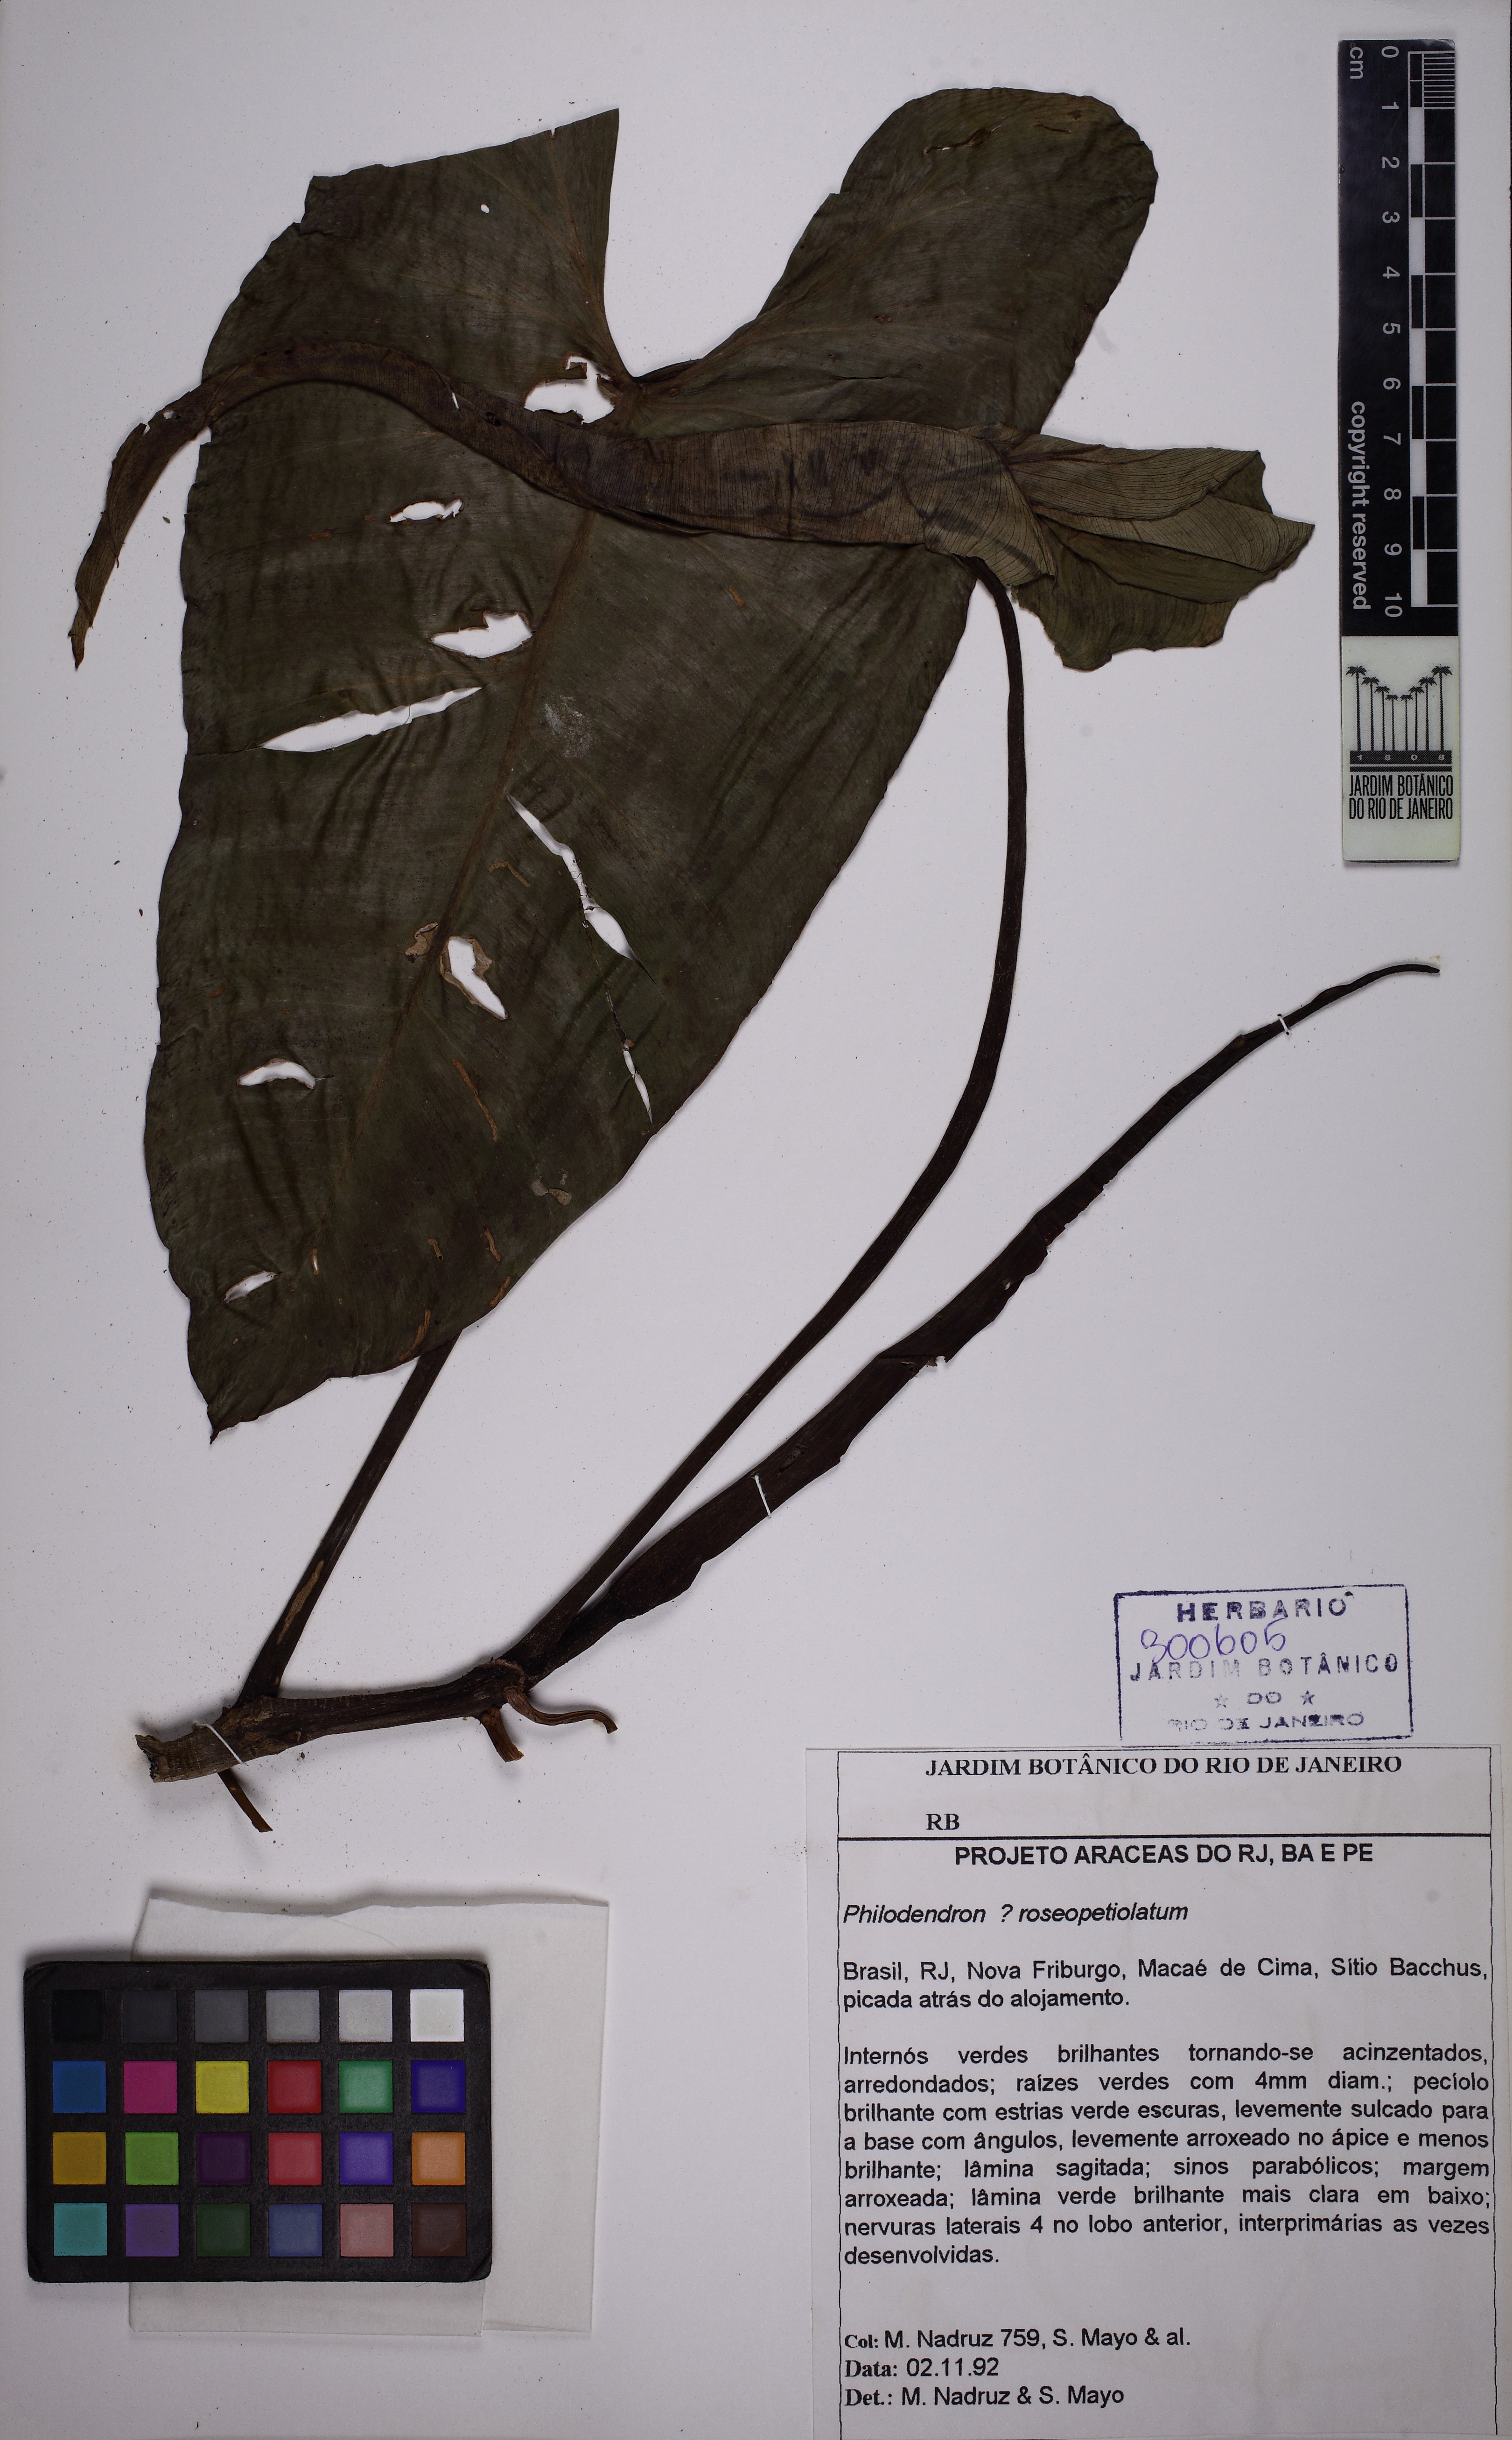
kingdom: Plantae
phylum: Tracheophyta
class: Liliopsida
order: Alismatales
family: Araceae
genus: Philodendron
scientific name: Philodendron roseopetiolatum
